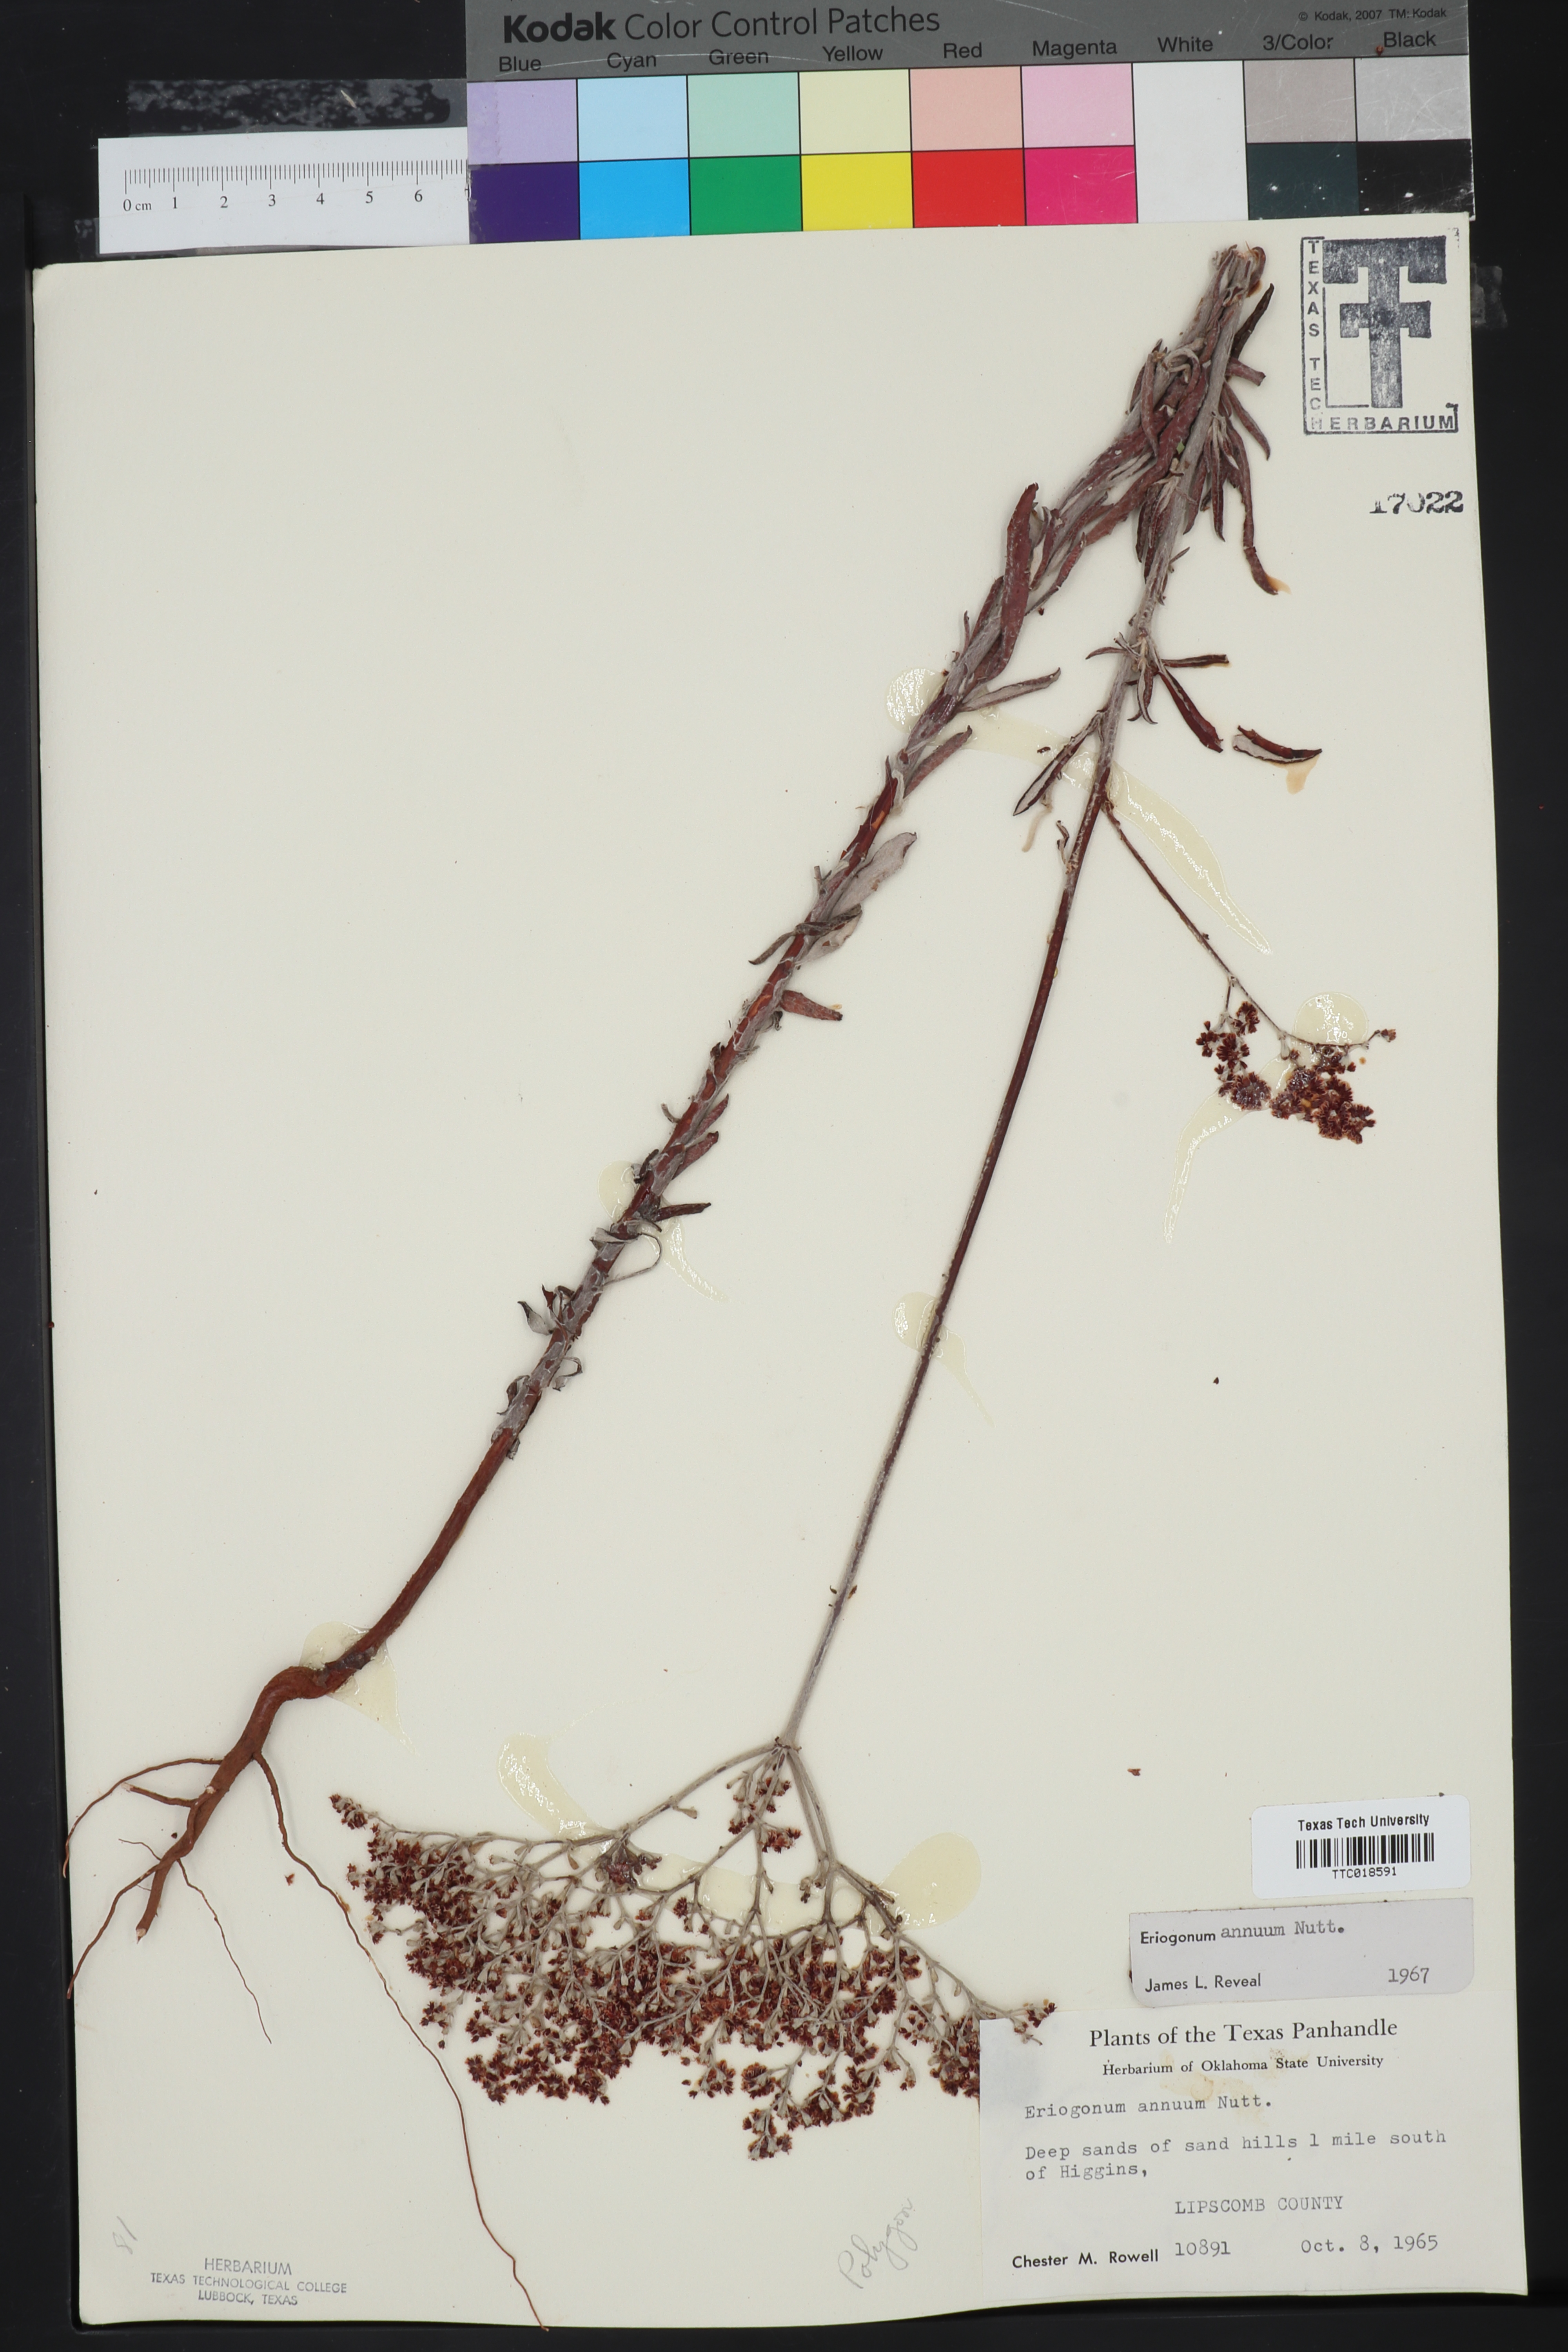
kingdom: Plantae
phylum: Tracheophyta
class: Magnoliopsida
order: Caryophyllales
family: Polygonaceae
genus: Eriogonum
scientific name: Eriogonum annuum
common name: Annual wild buckwheat
